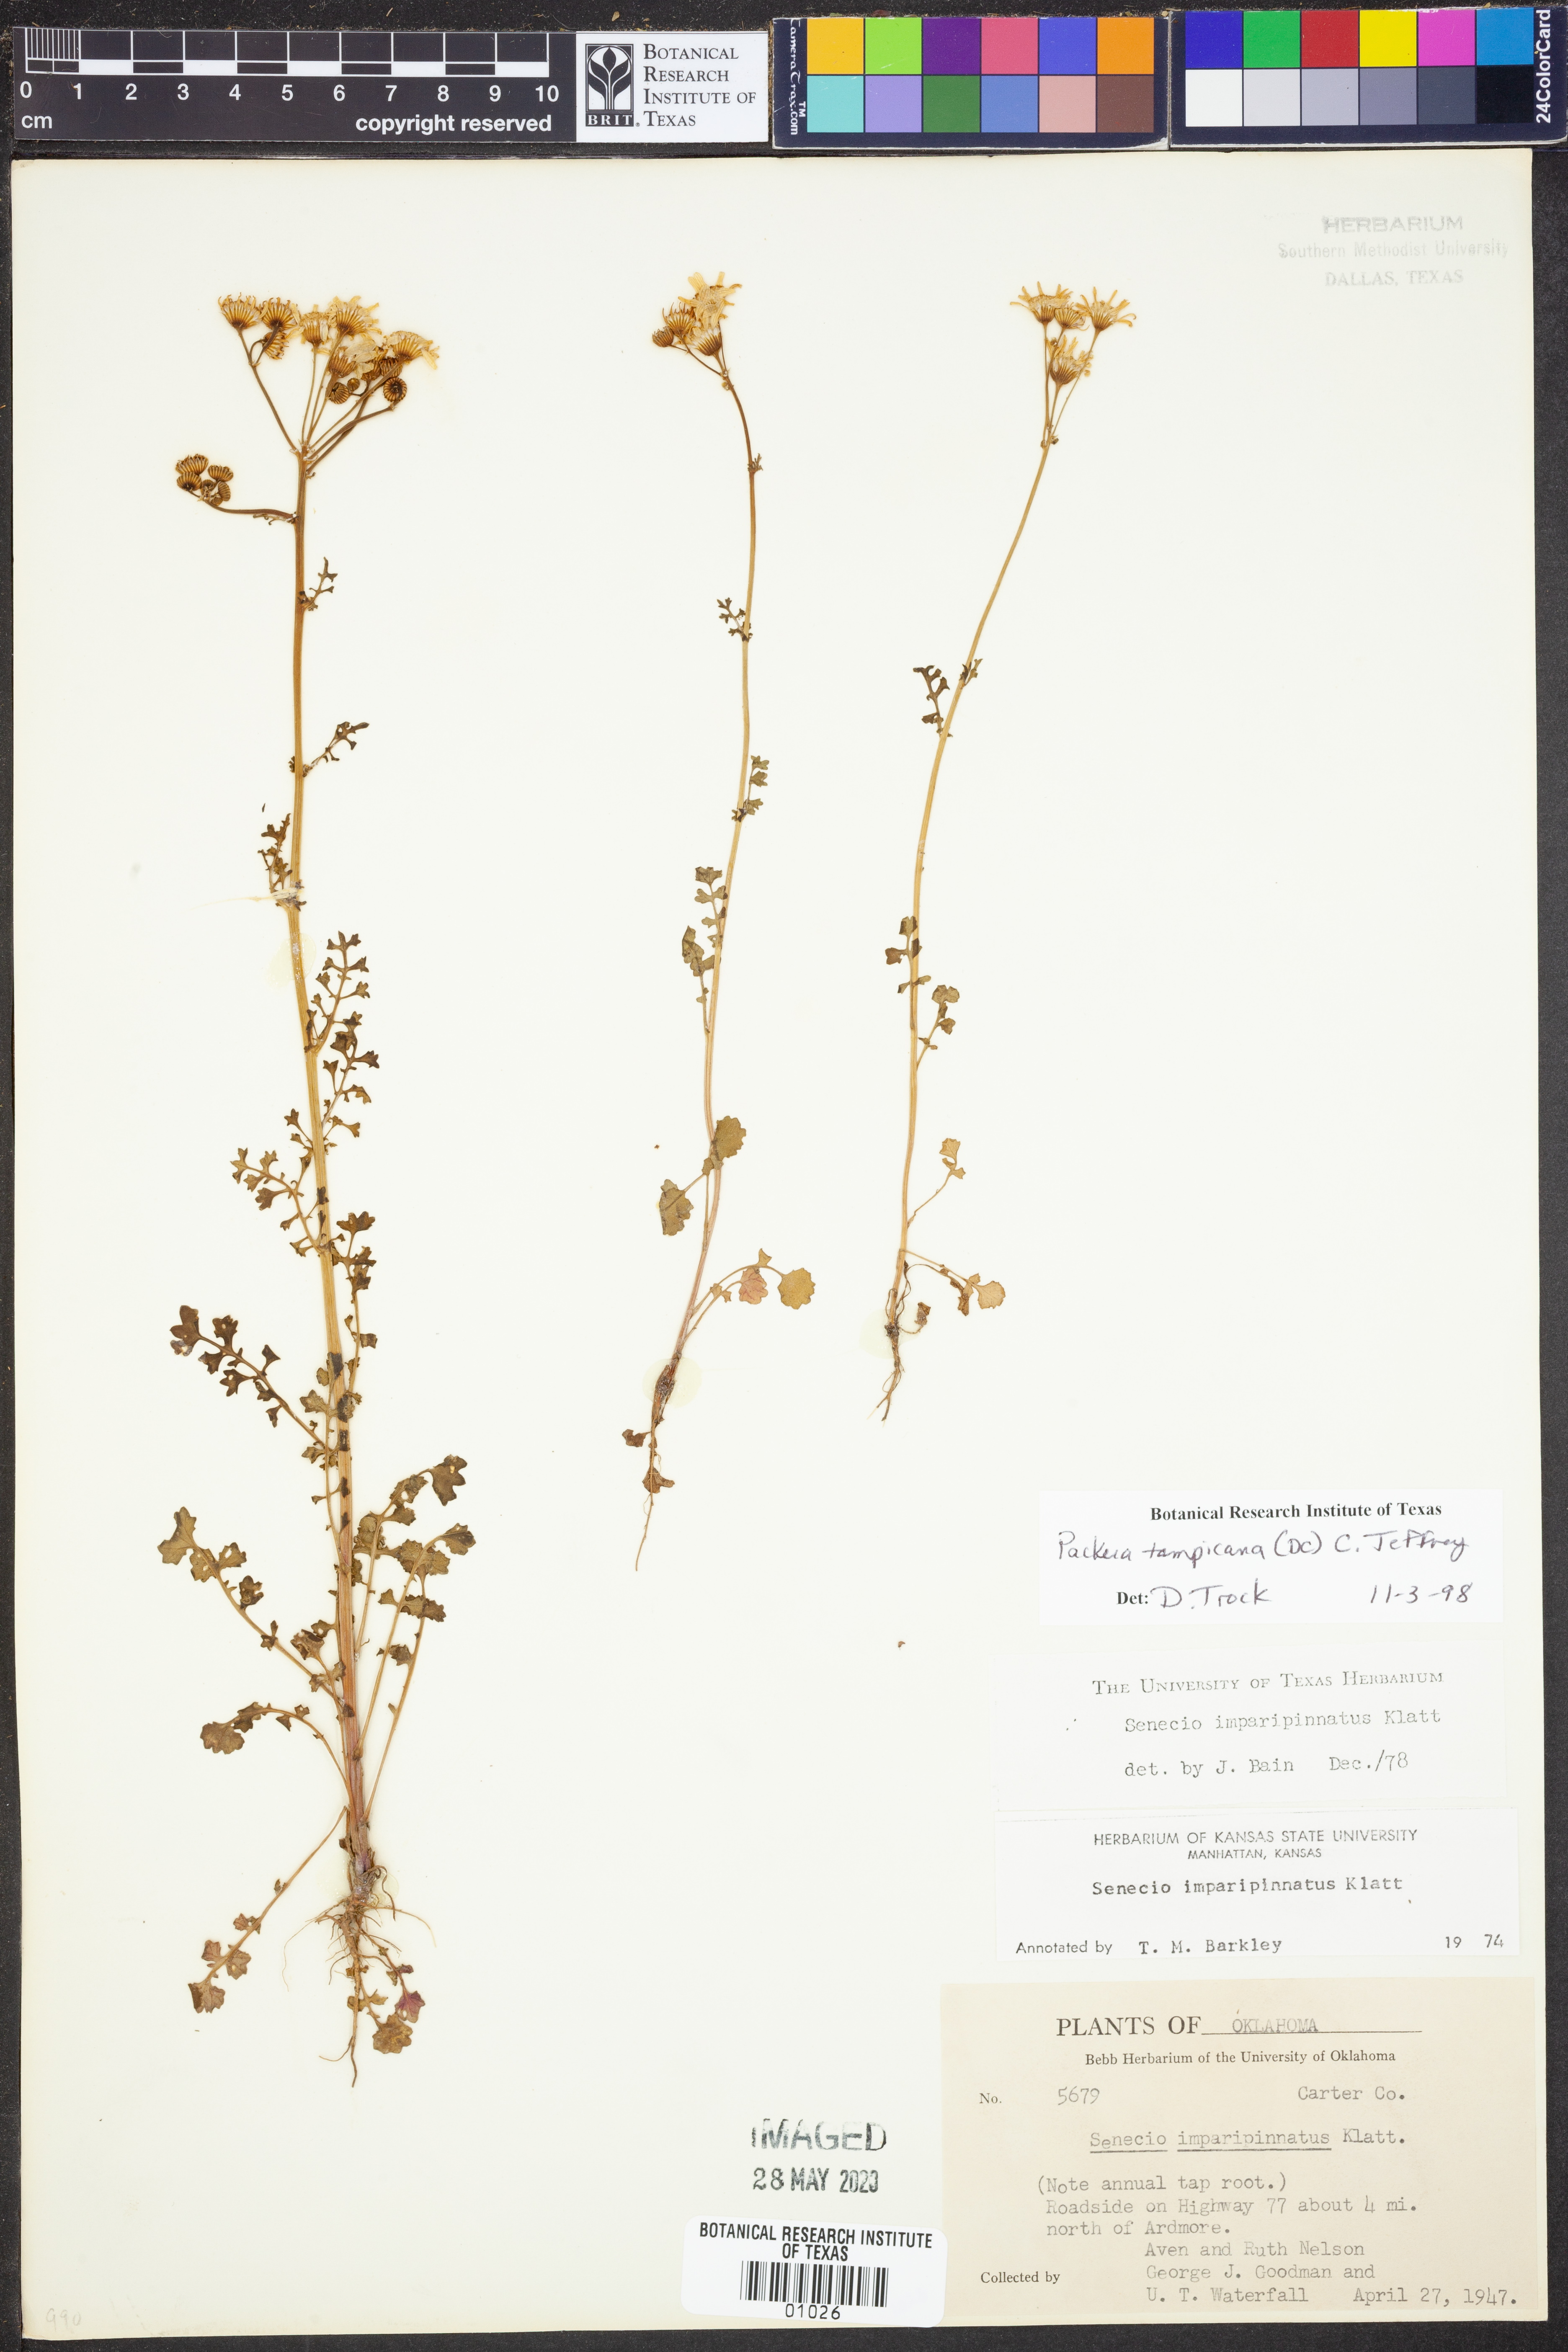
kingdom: Plantae
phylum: Tracheophyta
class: Magnoliopsida
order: Asterales
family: Asteraceae
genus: Packera
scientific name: Packera tampicana
